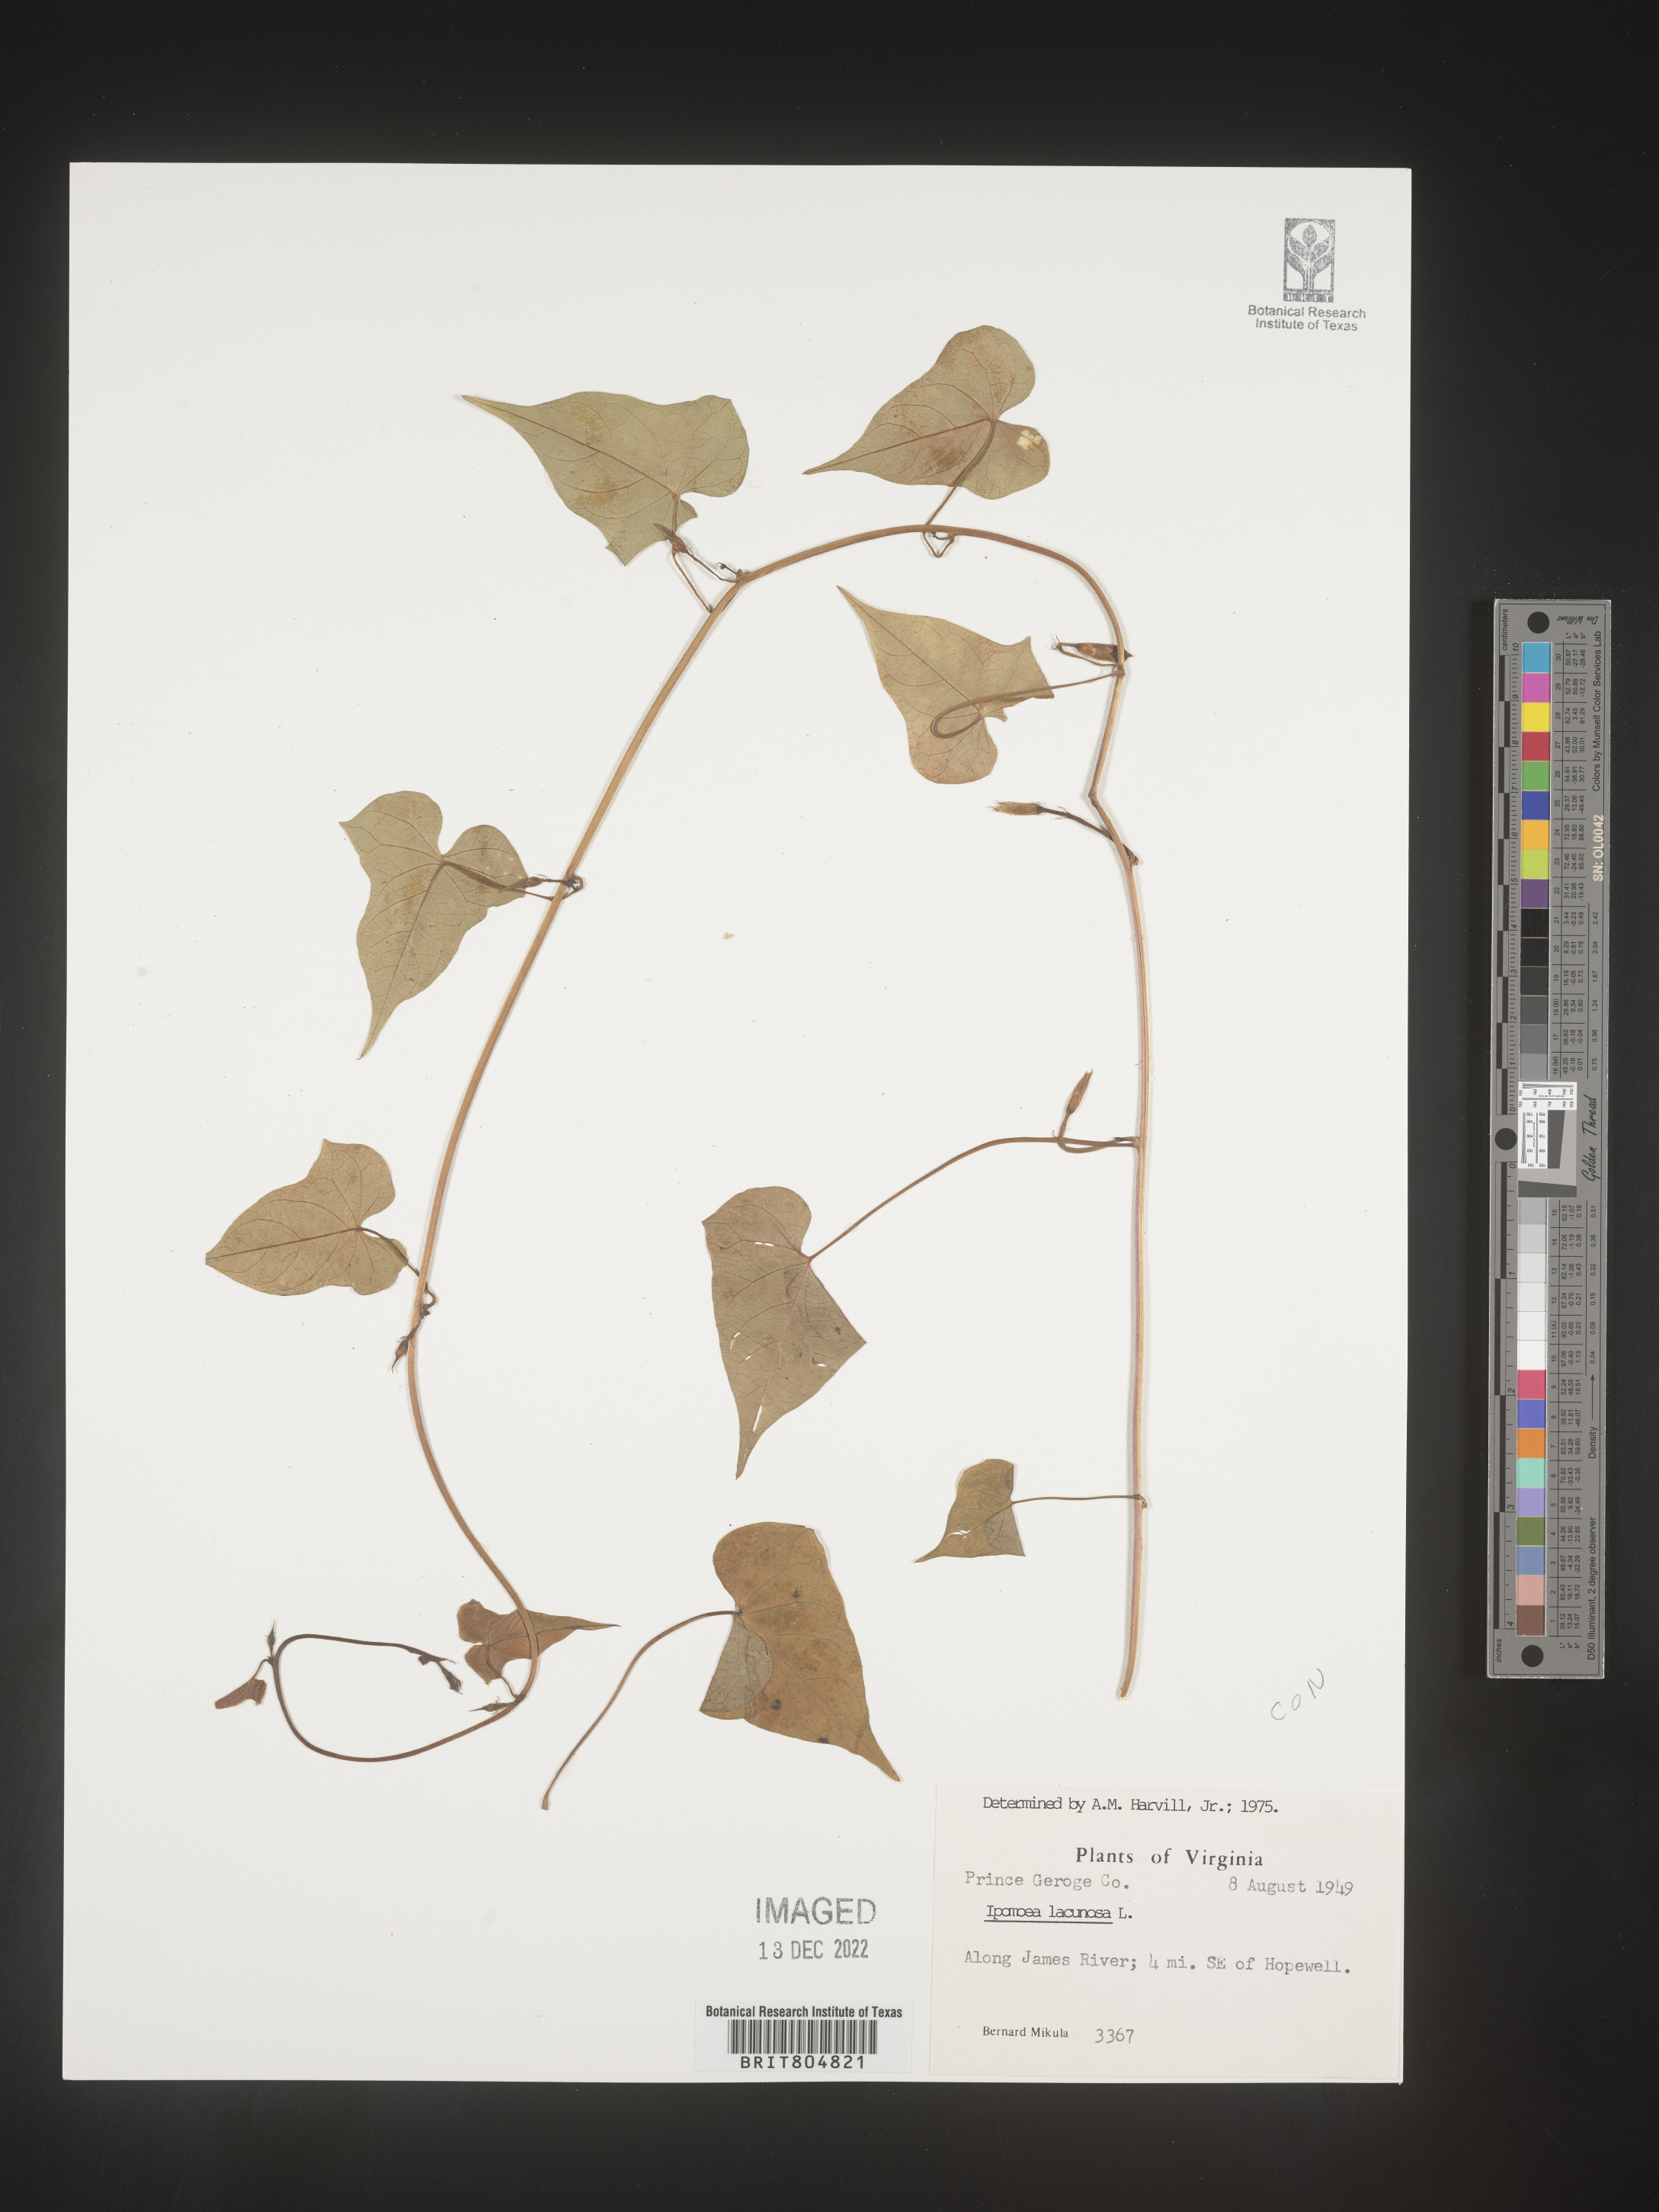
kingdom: Plantae
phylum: Tracheophyta
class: Magnoliopsida
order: Solanales
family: Convolvulaceae
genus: Ipomoea
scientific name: Ipomoea lacunosa
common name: White morning-glory
